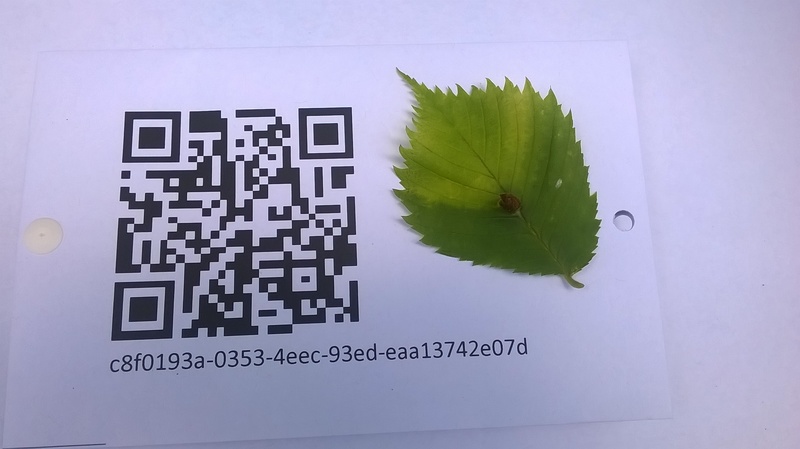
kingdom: Animalia
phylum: Arthropoda
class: Insecta
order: Hemiptera
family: Aphididae
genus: Tetraneura
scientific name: Tetraneura ulmi
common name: Aphid
